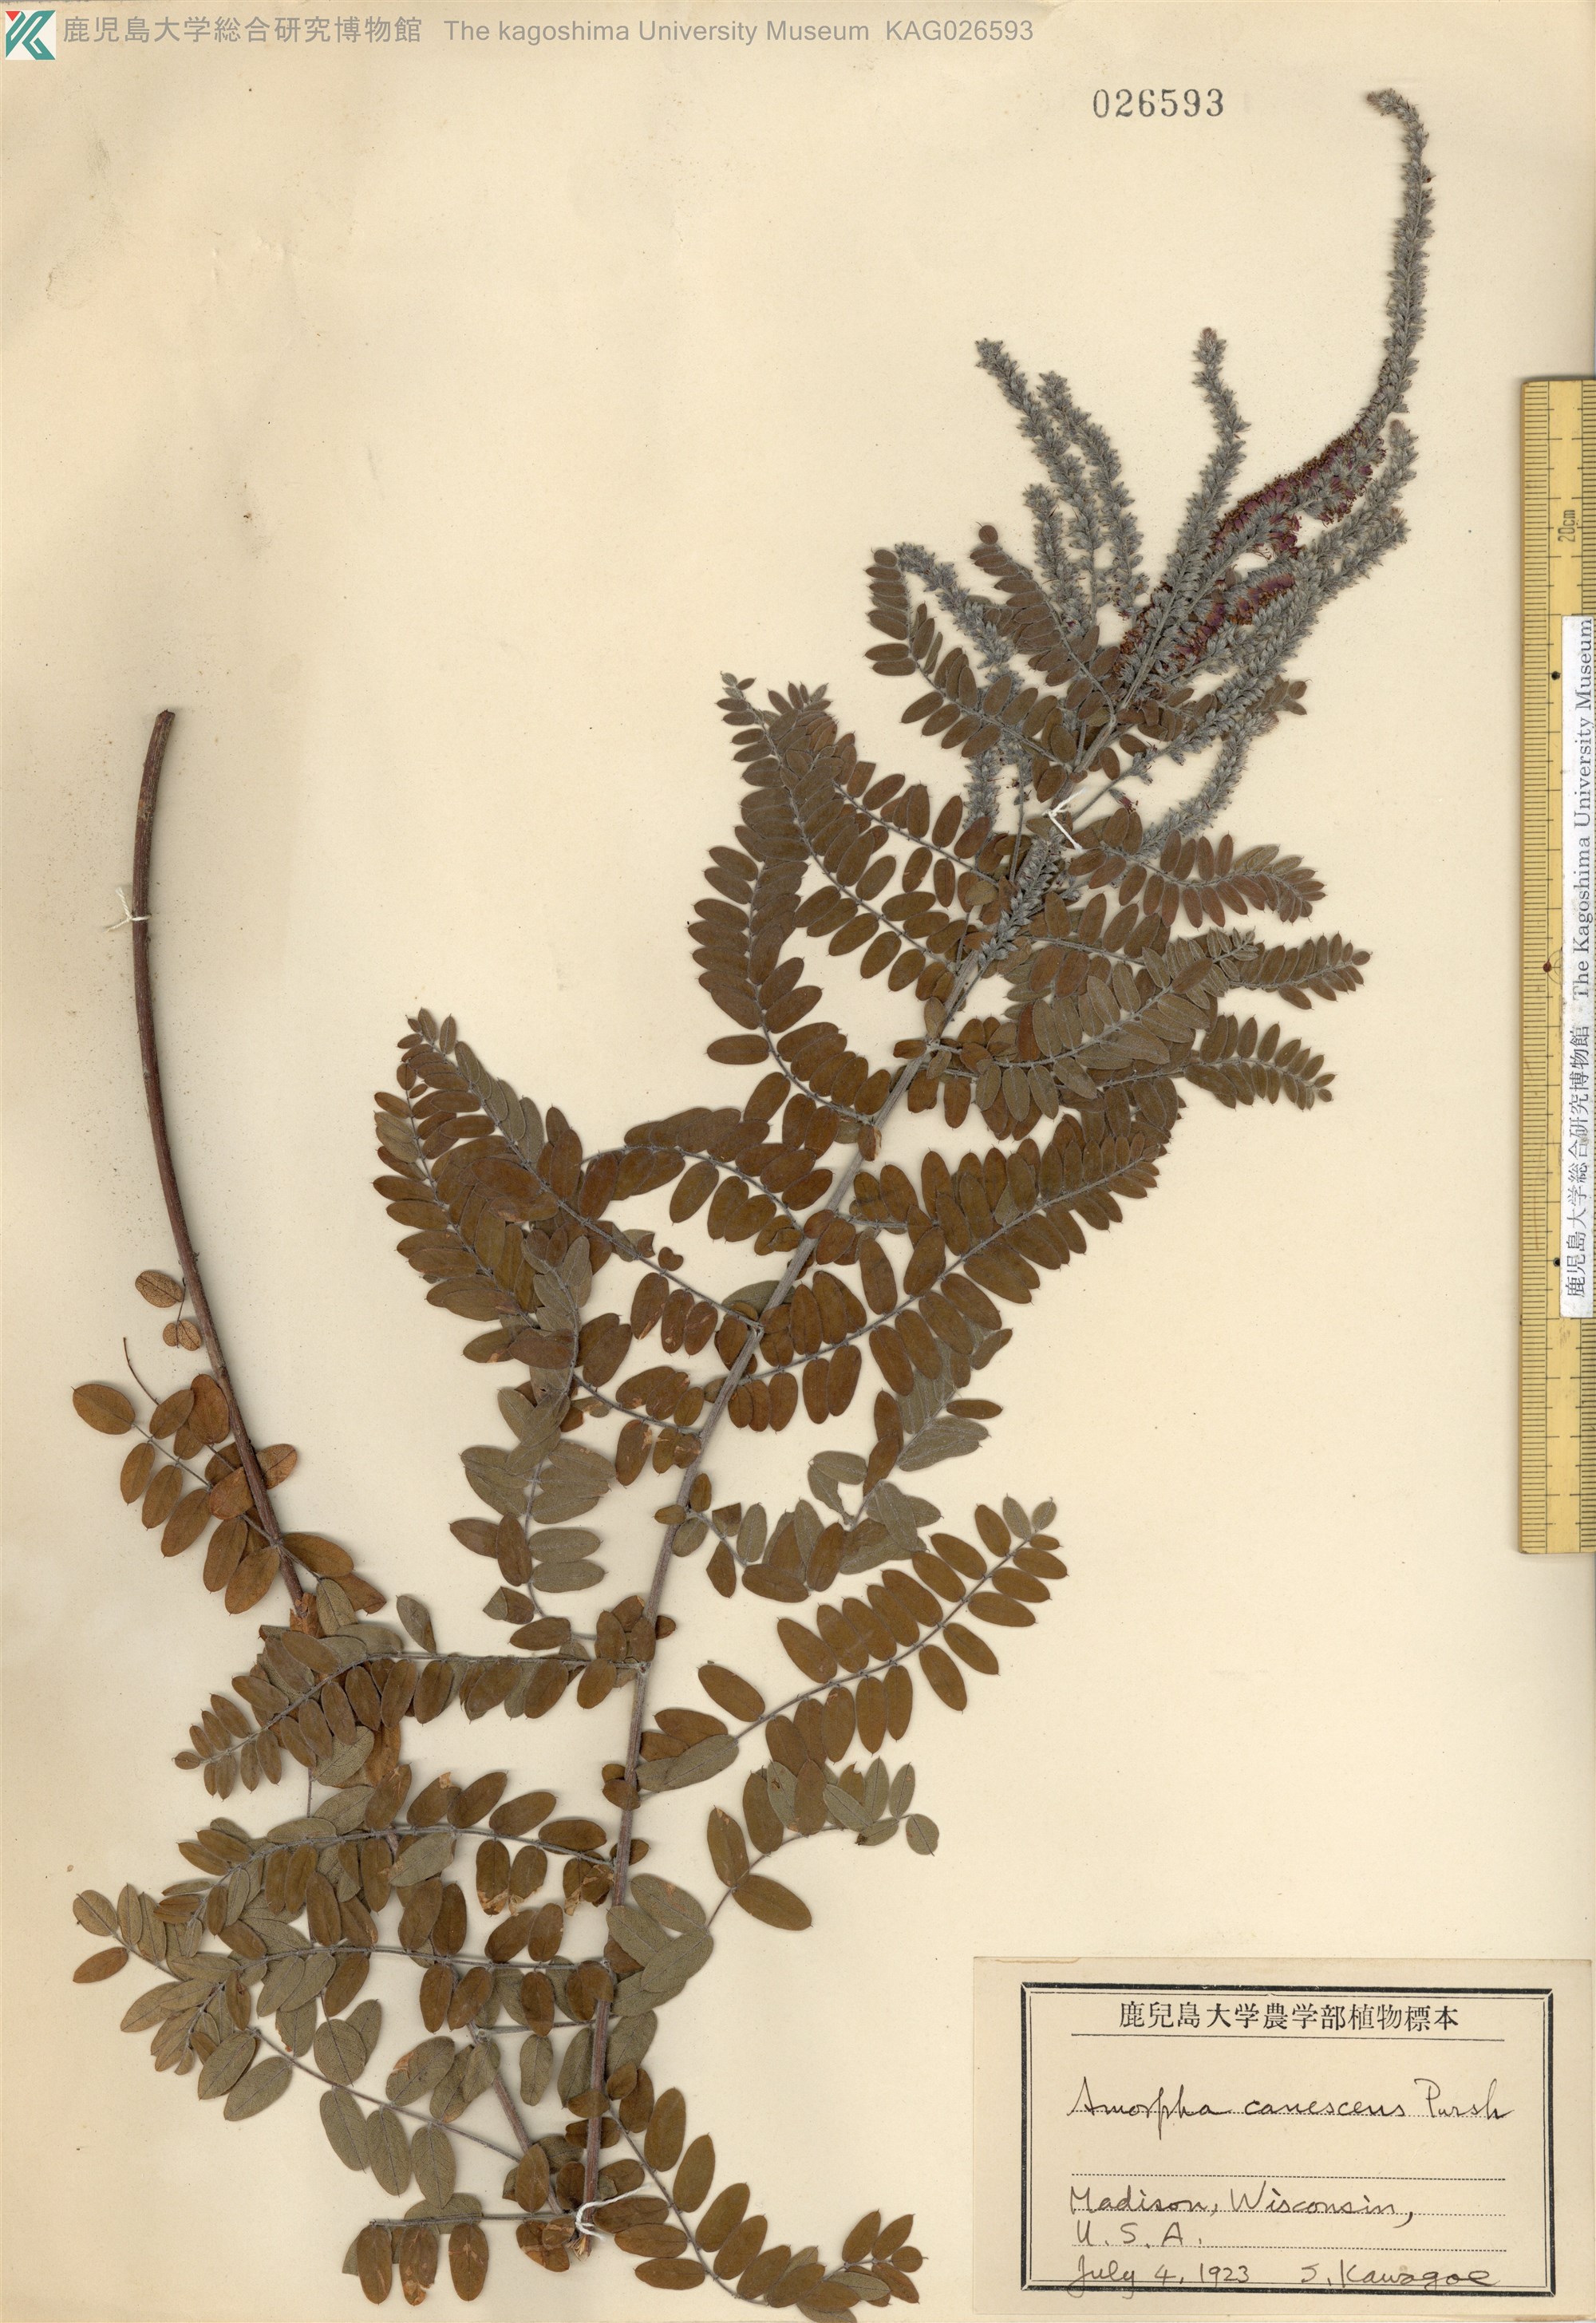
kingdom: Plantae
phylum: Tracheophyta
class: Magnoliopsida
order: Fabales
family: Fabaceae
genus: Amorpha
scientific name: Amorpha canescens
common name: Leadplant
